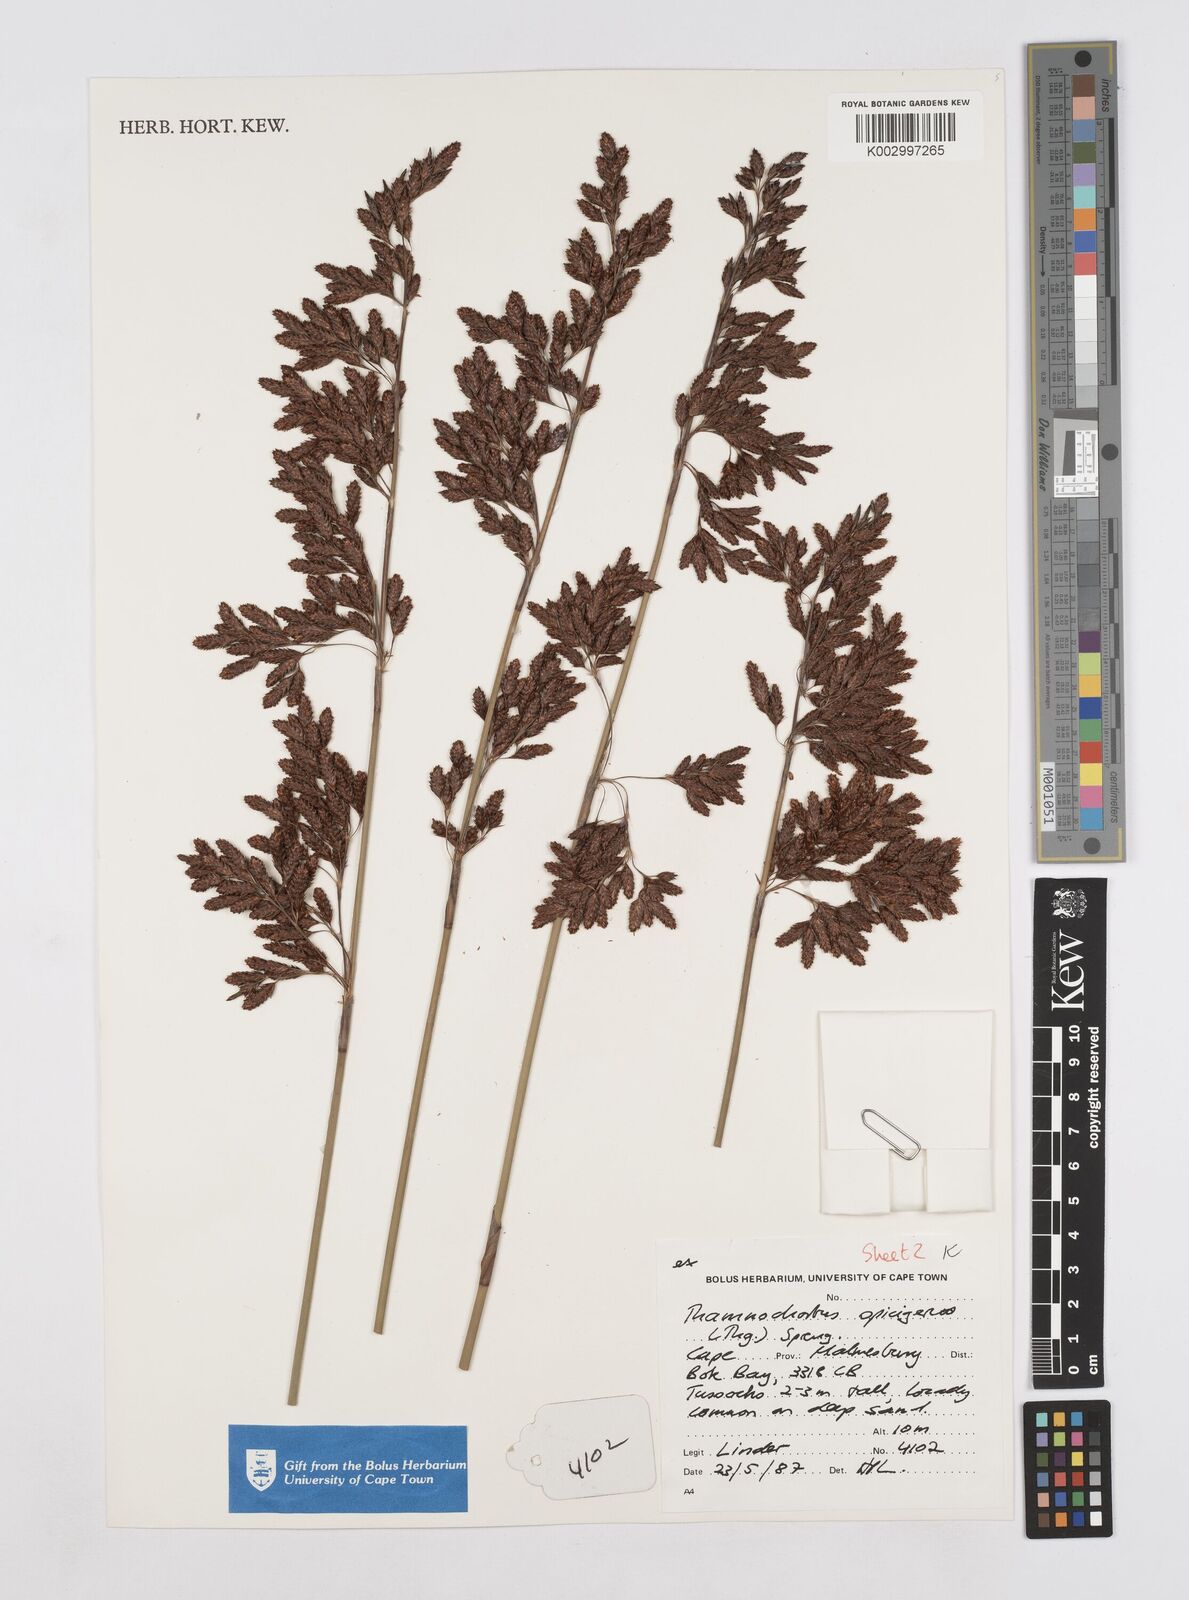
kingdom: Plantae
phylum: Tracheophyta
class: Liliopsida
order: Poales
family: Restionaceae
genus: Thamnochortus
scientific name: Thamnochortus spicigerus
